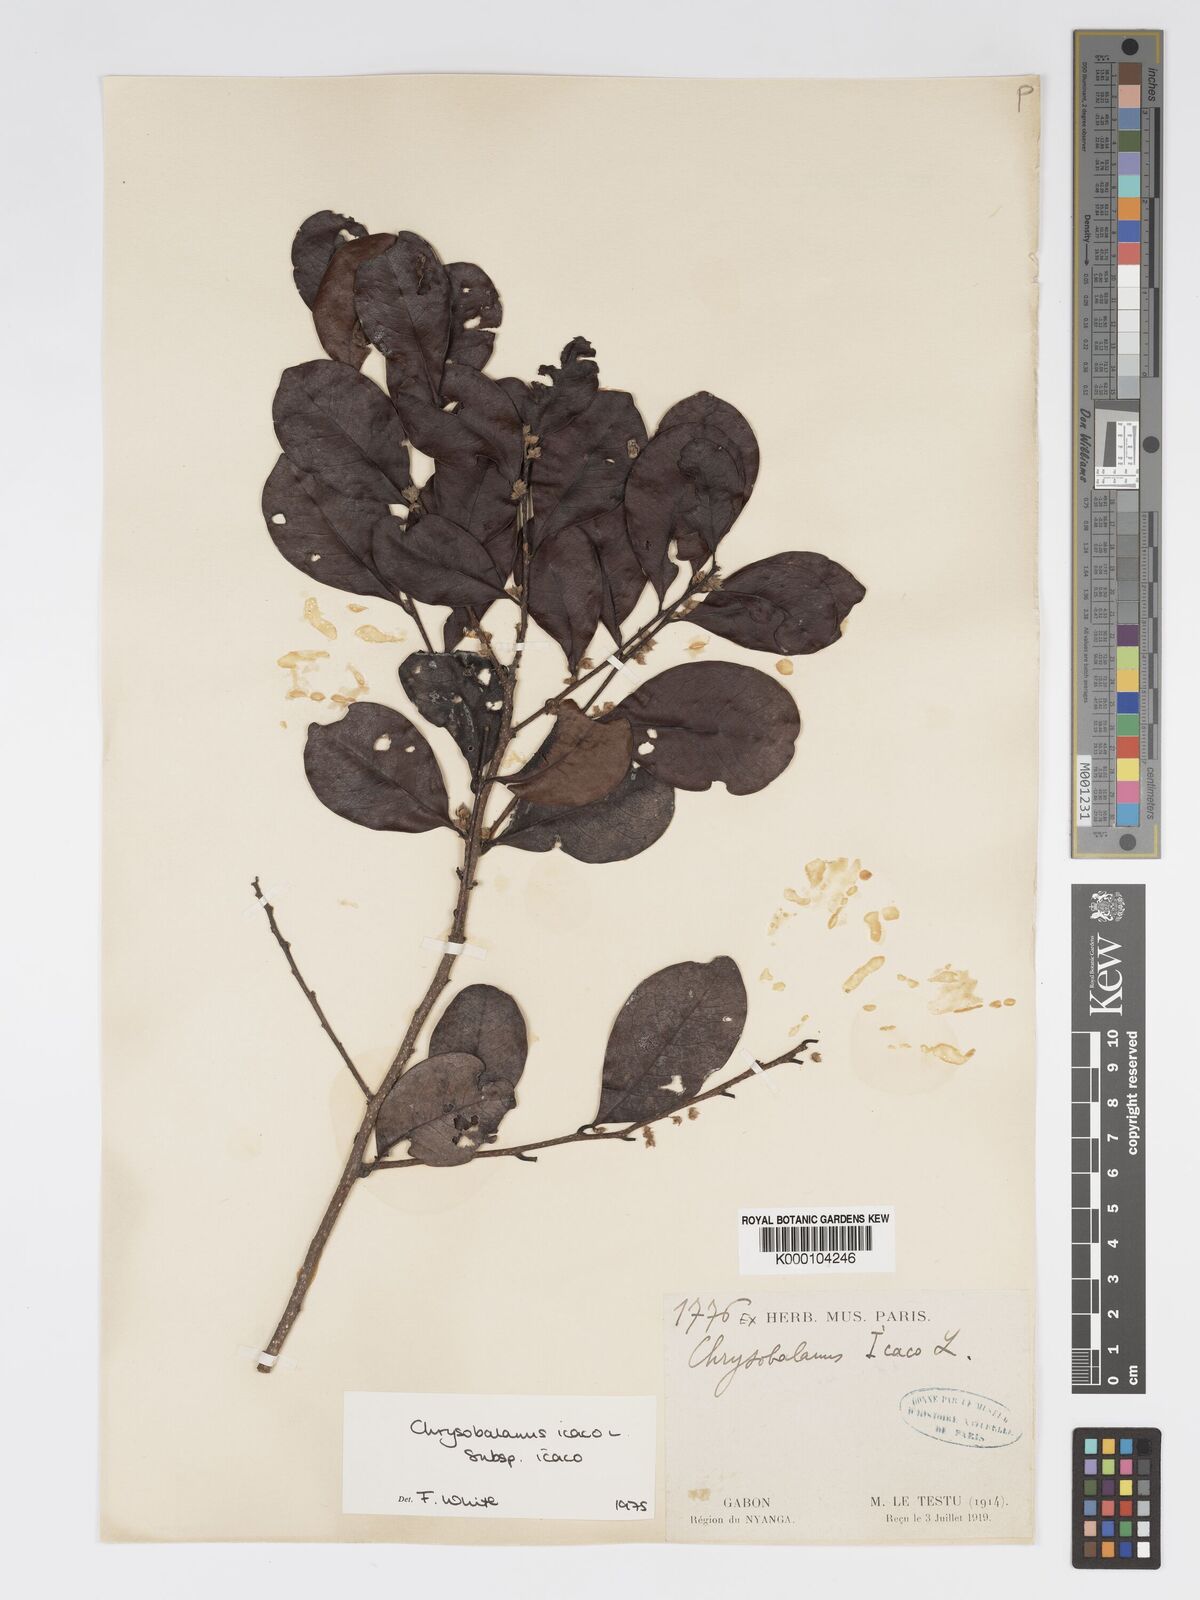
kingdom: Plantae
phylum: Tracheophyta
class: Magnoliopsida
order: Malpighiales
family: Chrysobalanaceae
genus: Chrysobalanus
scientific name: Chrysobalanus icaco
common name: Coco plum
